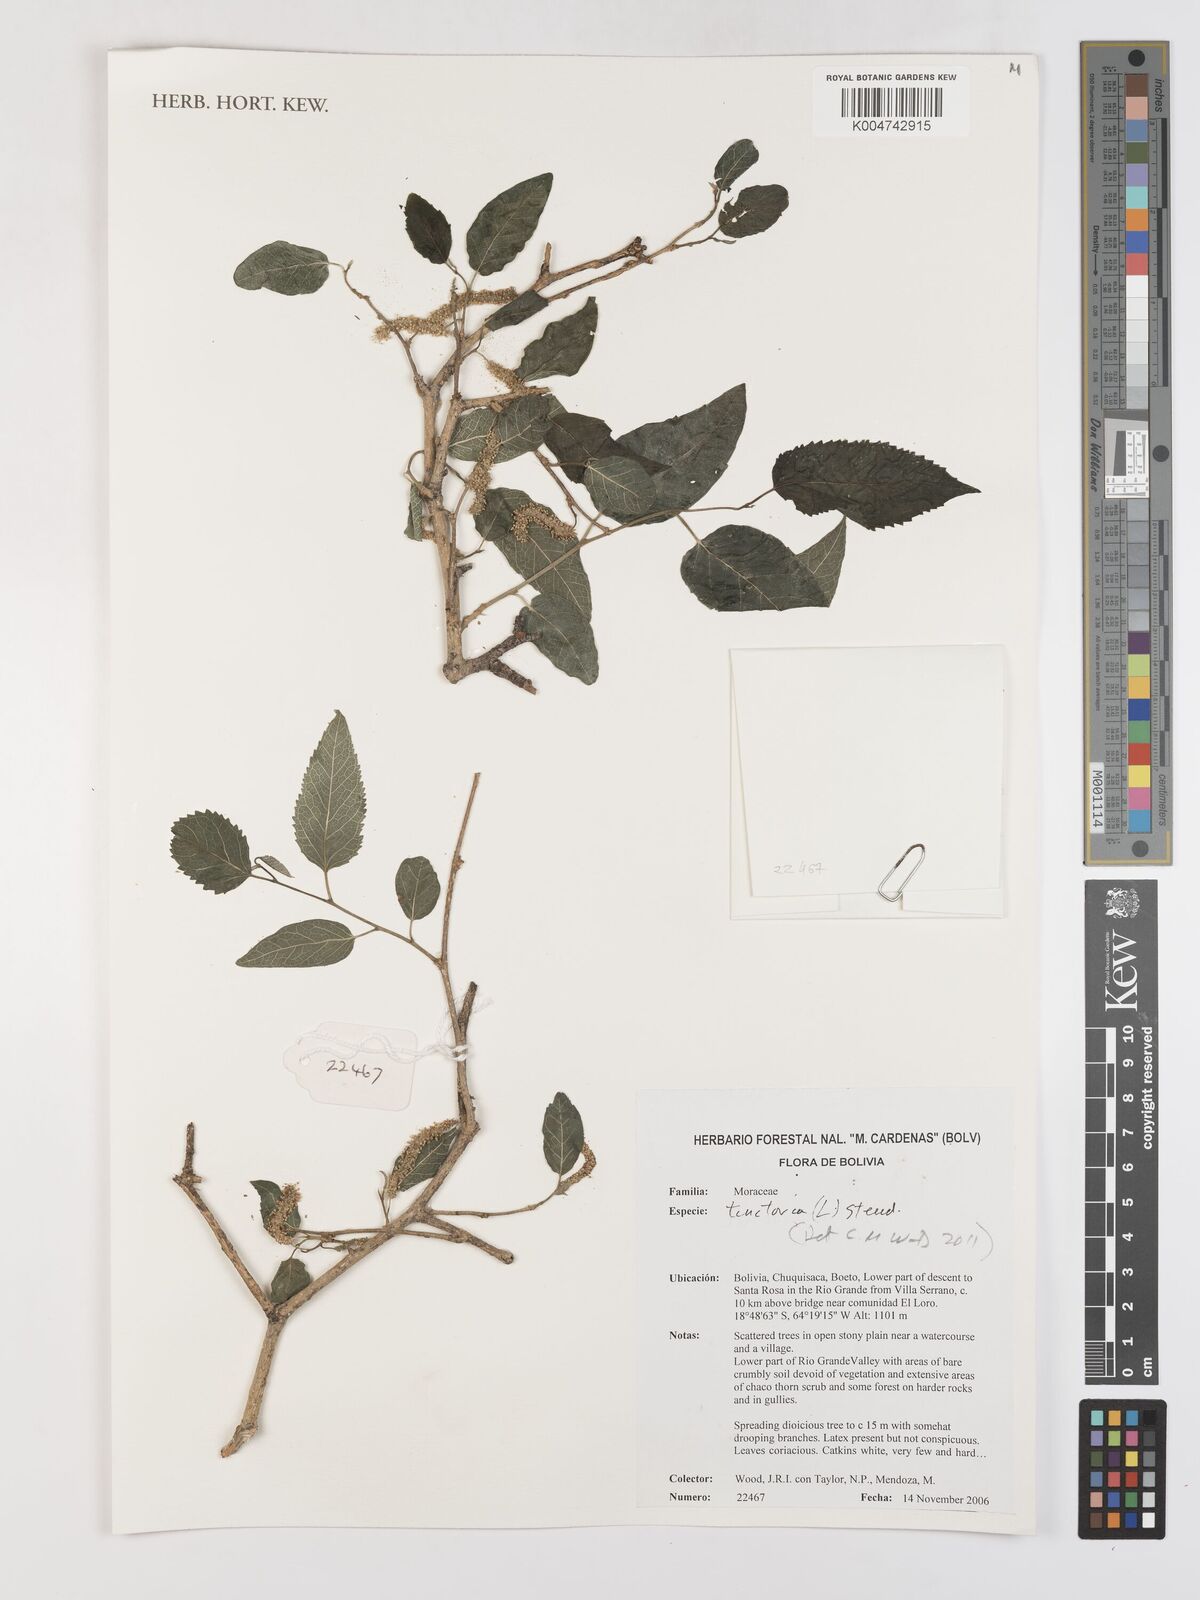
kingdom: Plantae
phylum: Tracheophyta
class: Magnoliopsida
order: Rosales
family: Moraceae
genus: Maclura
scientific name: Maclura tinctoria
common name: Old fustic
